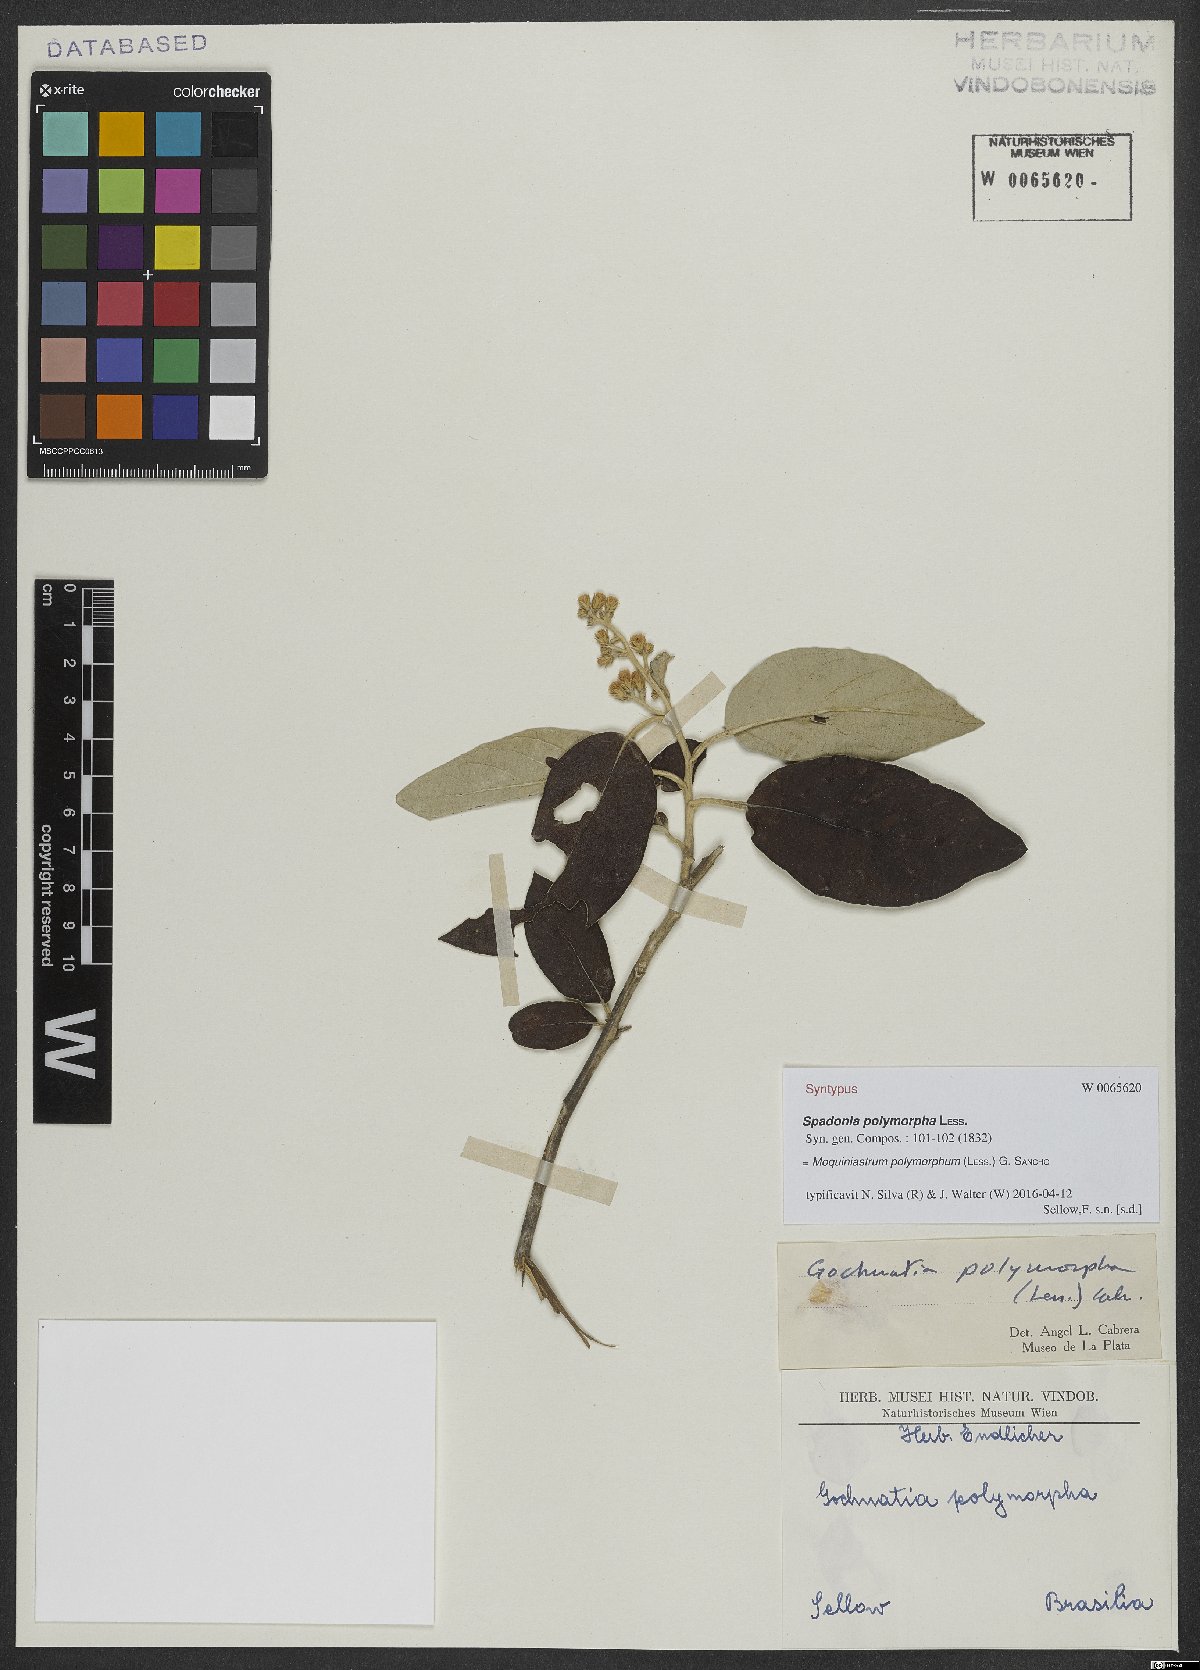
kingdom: Plantae
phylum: Tracheophyta
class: Magnoliopsida
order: Asterales
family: Asteraceae
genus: Moquiniastrum
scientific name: Moquiniastrum polymorphum
